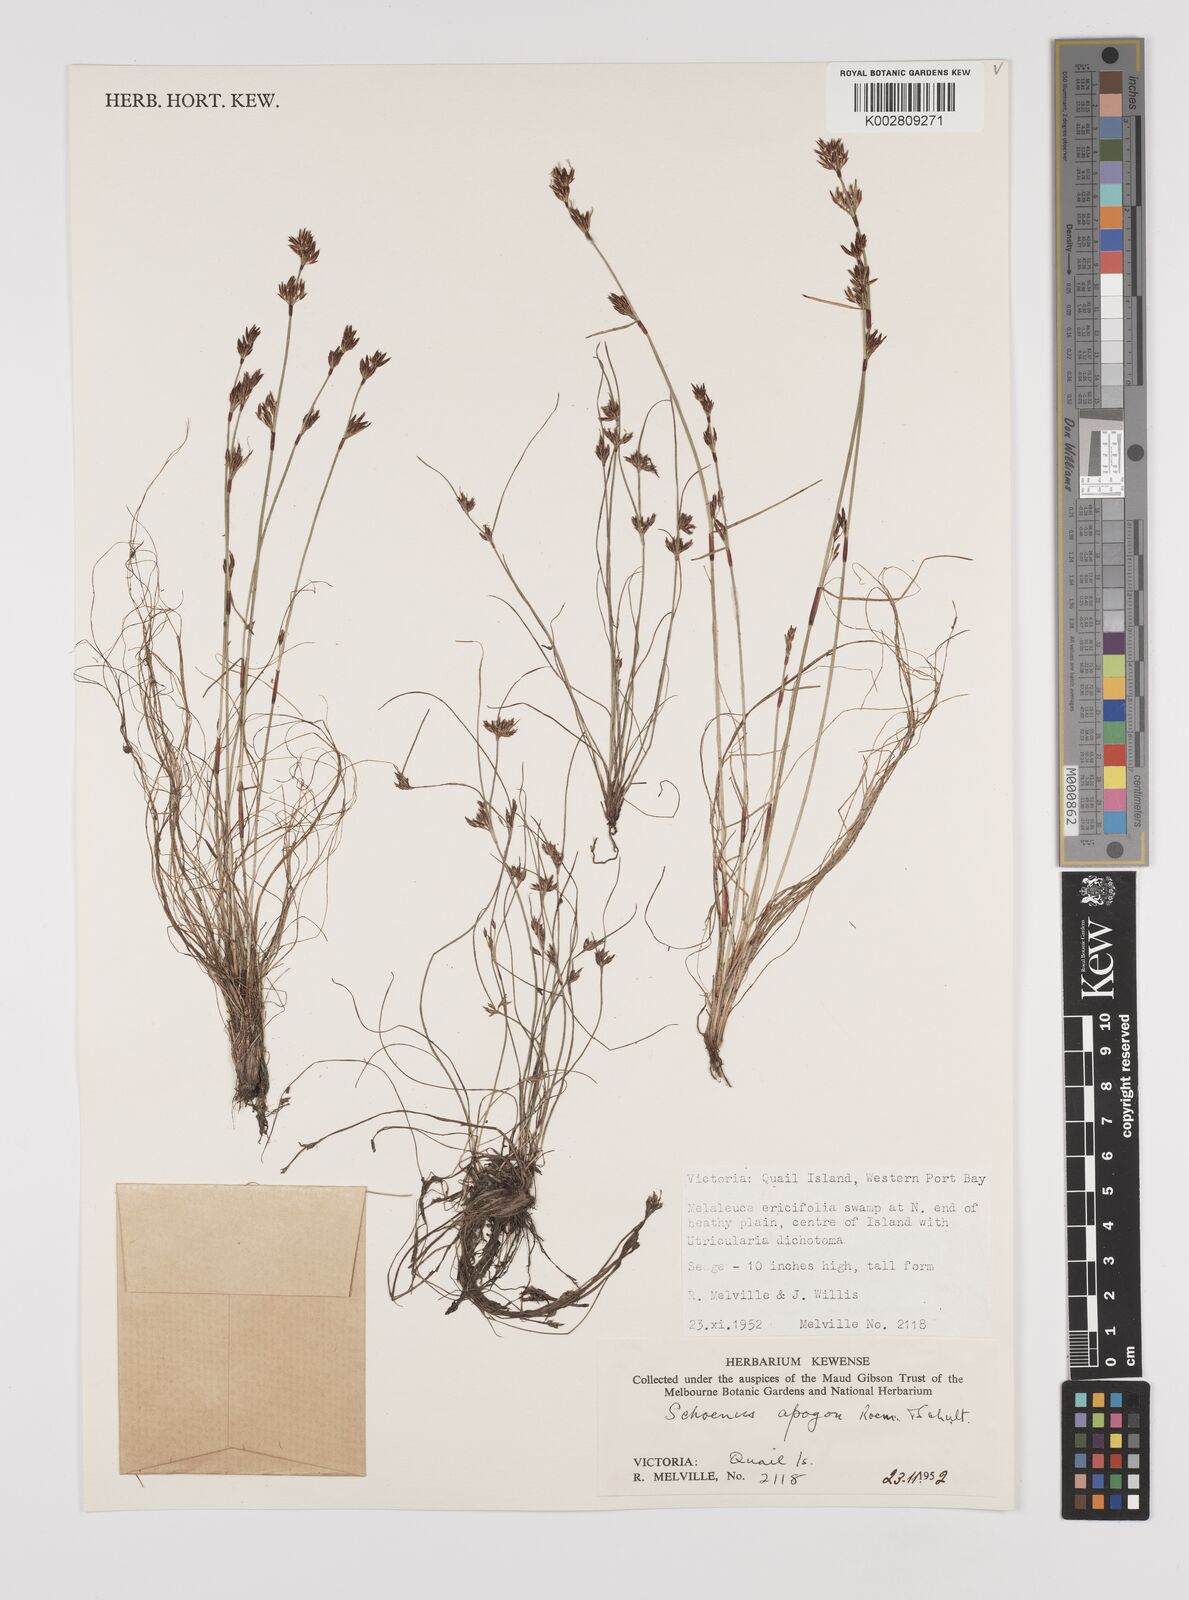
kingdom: Plantae
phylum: Tracheophyta
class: Liliopsida
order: Poales
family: Cyperaceae
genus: Schoenus
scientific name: Schoenus apogon
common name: Smooth bogrush
